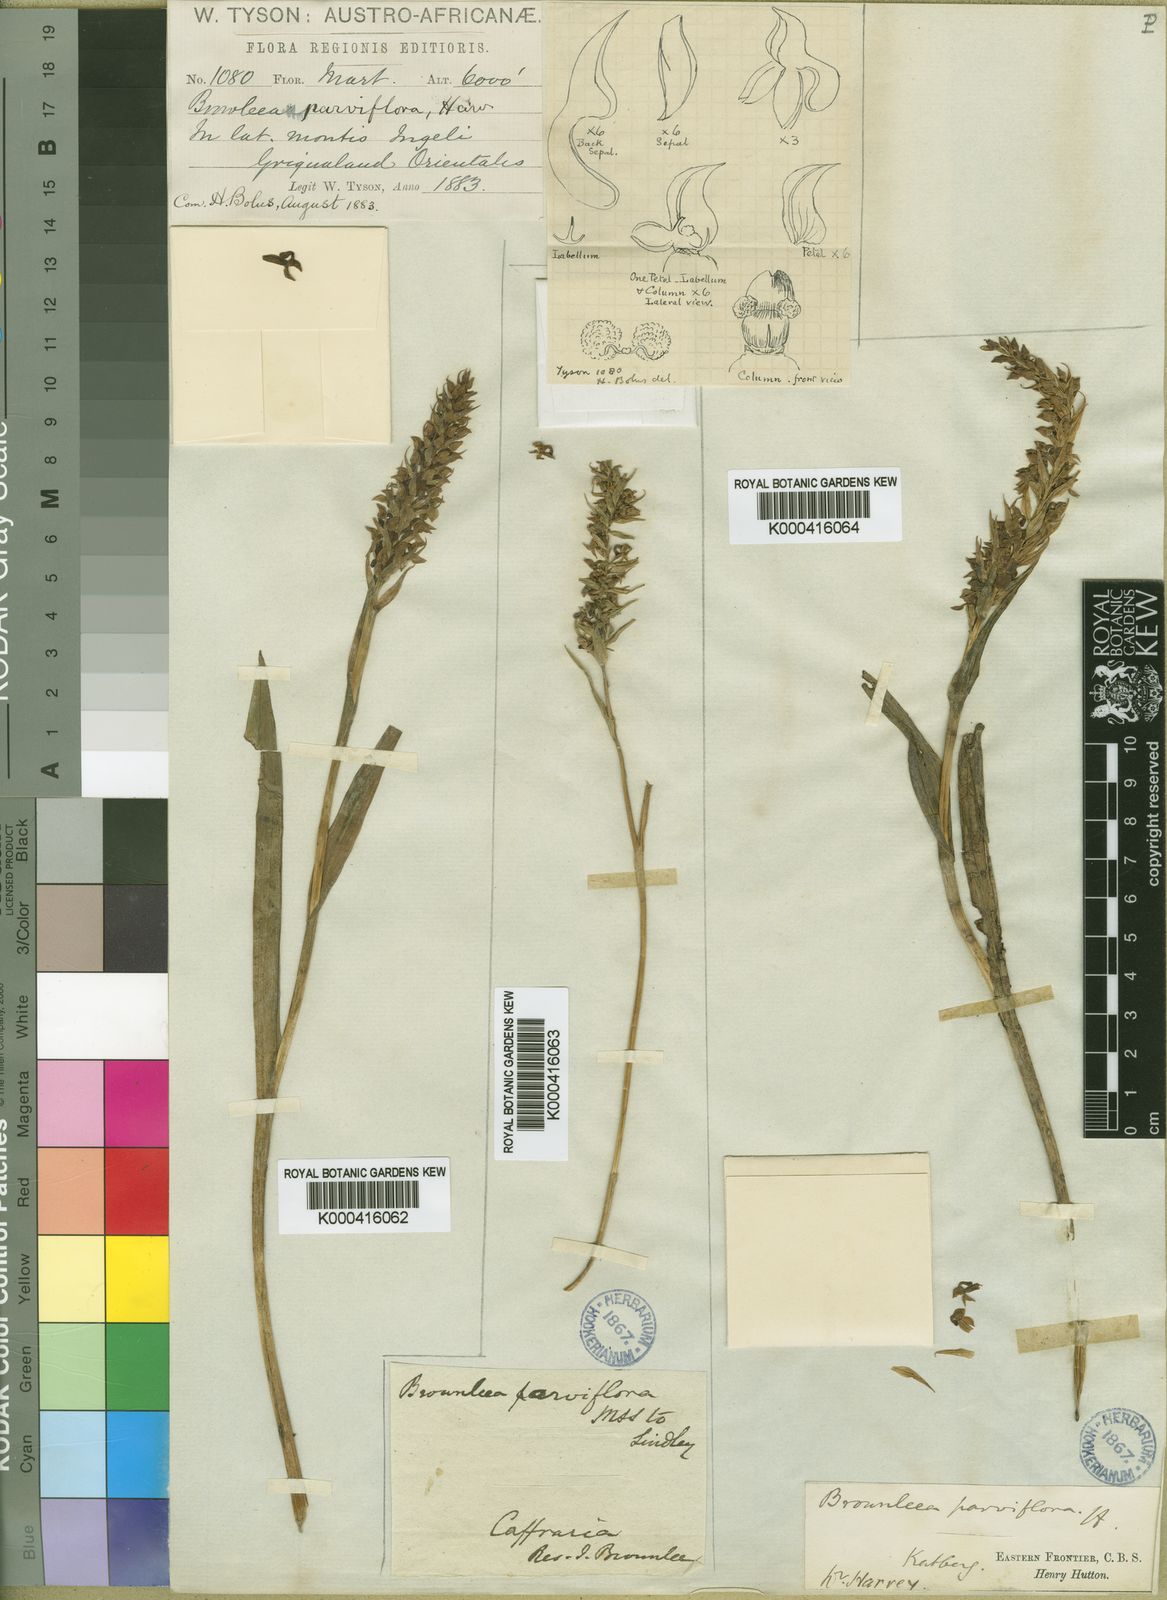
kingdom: Plantae
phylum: Tracheophyta
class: Liliopsida
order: Asparagales
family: Orchidaceae
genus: Brownleea
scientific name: Brownleea parviflora
